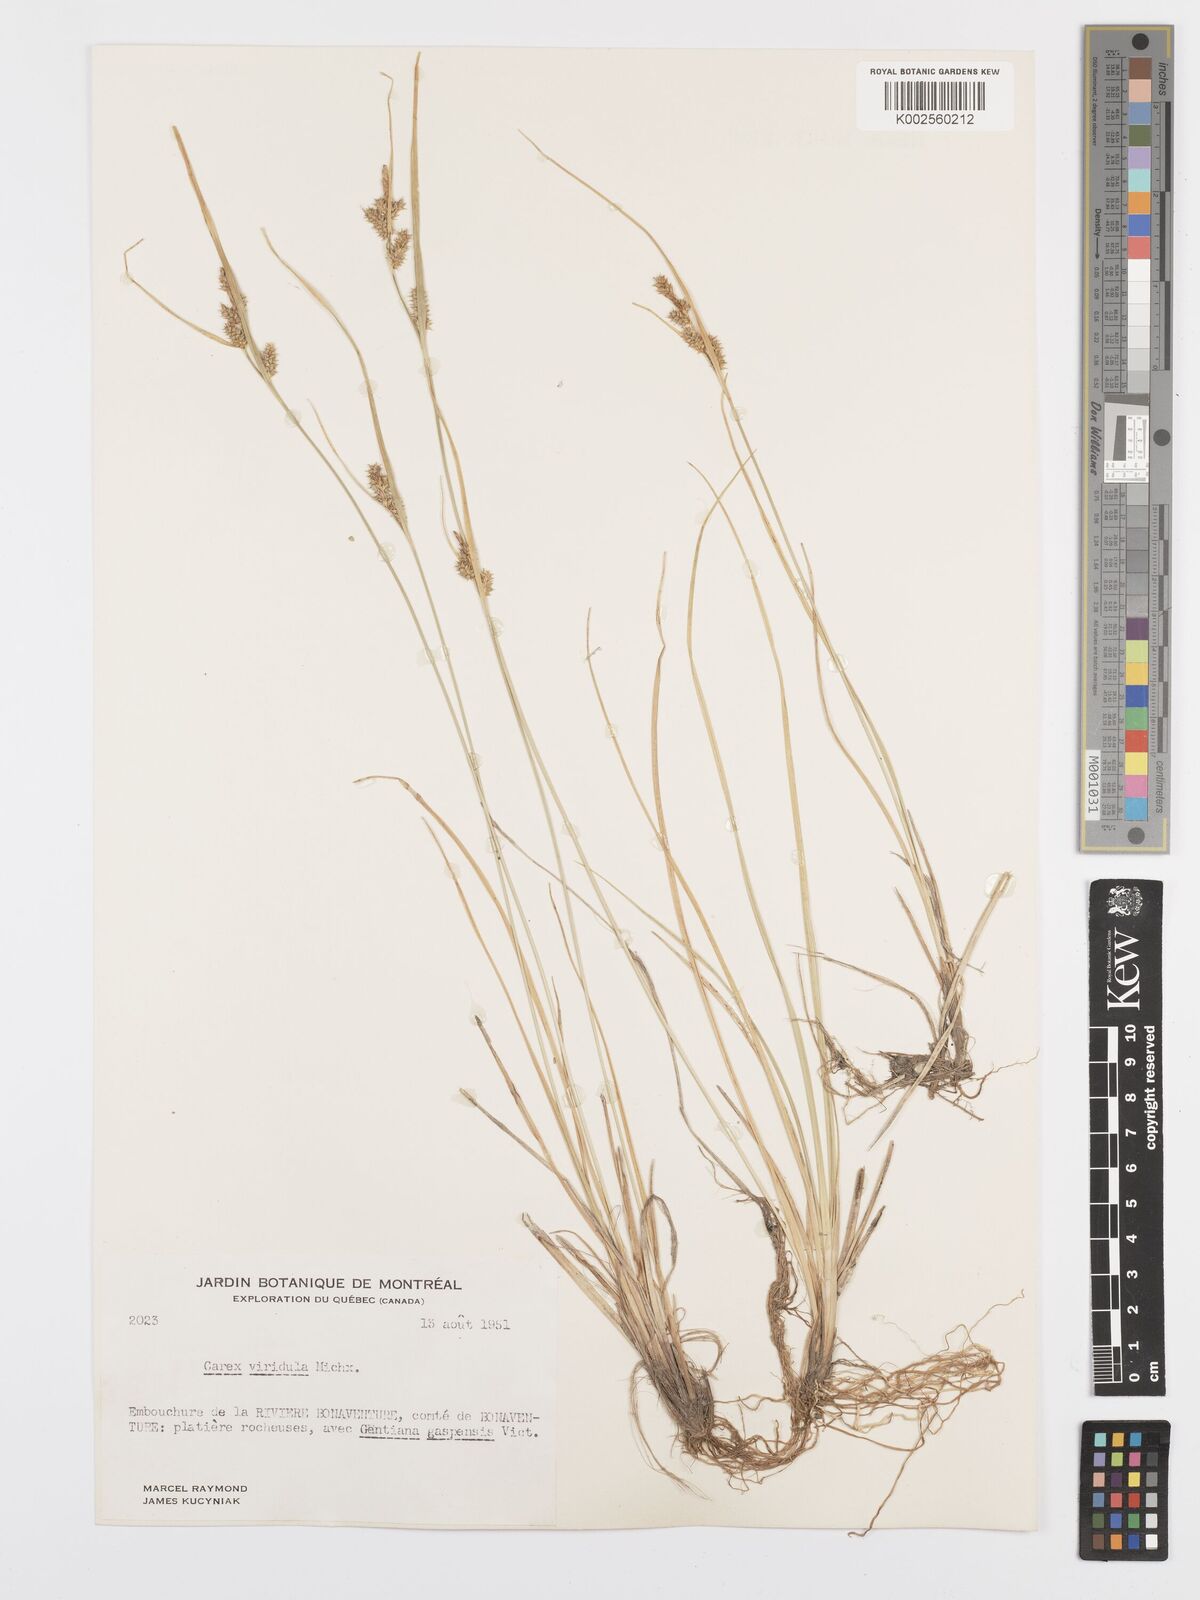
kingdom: Plantae
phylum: Tracheophyta
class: Liliopsida
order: Poales
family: Cyperaceae
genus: Carex
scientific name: Carex oederi
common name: Common & small-fruited yellow-sedge
